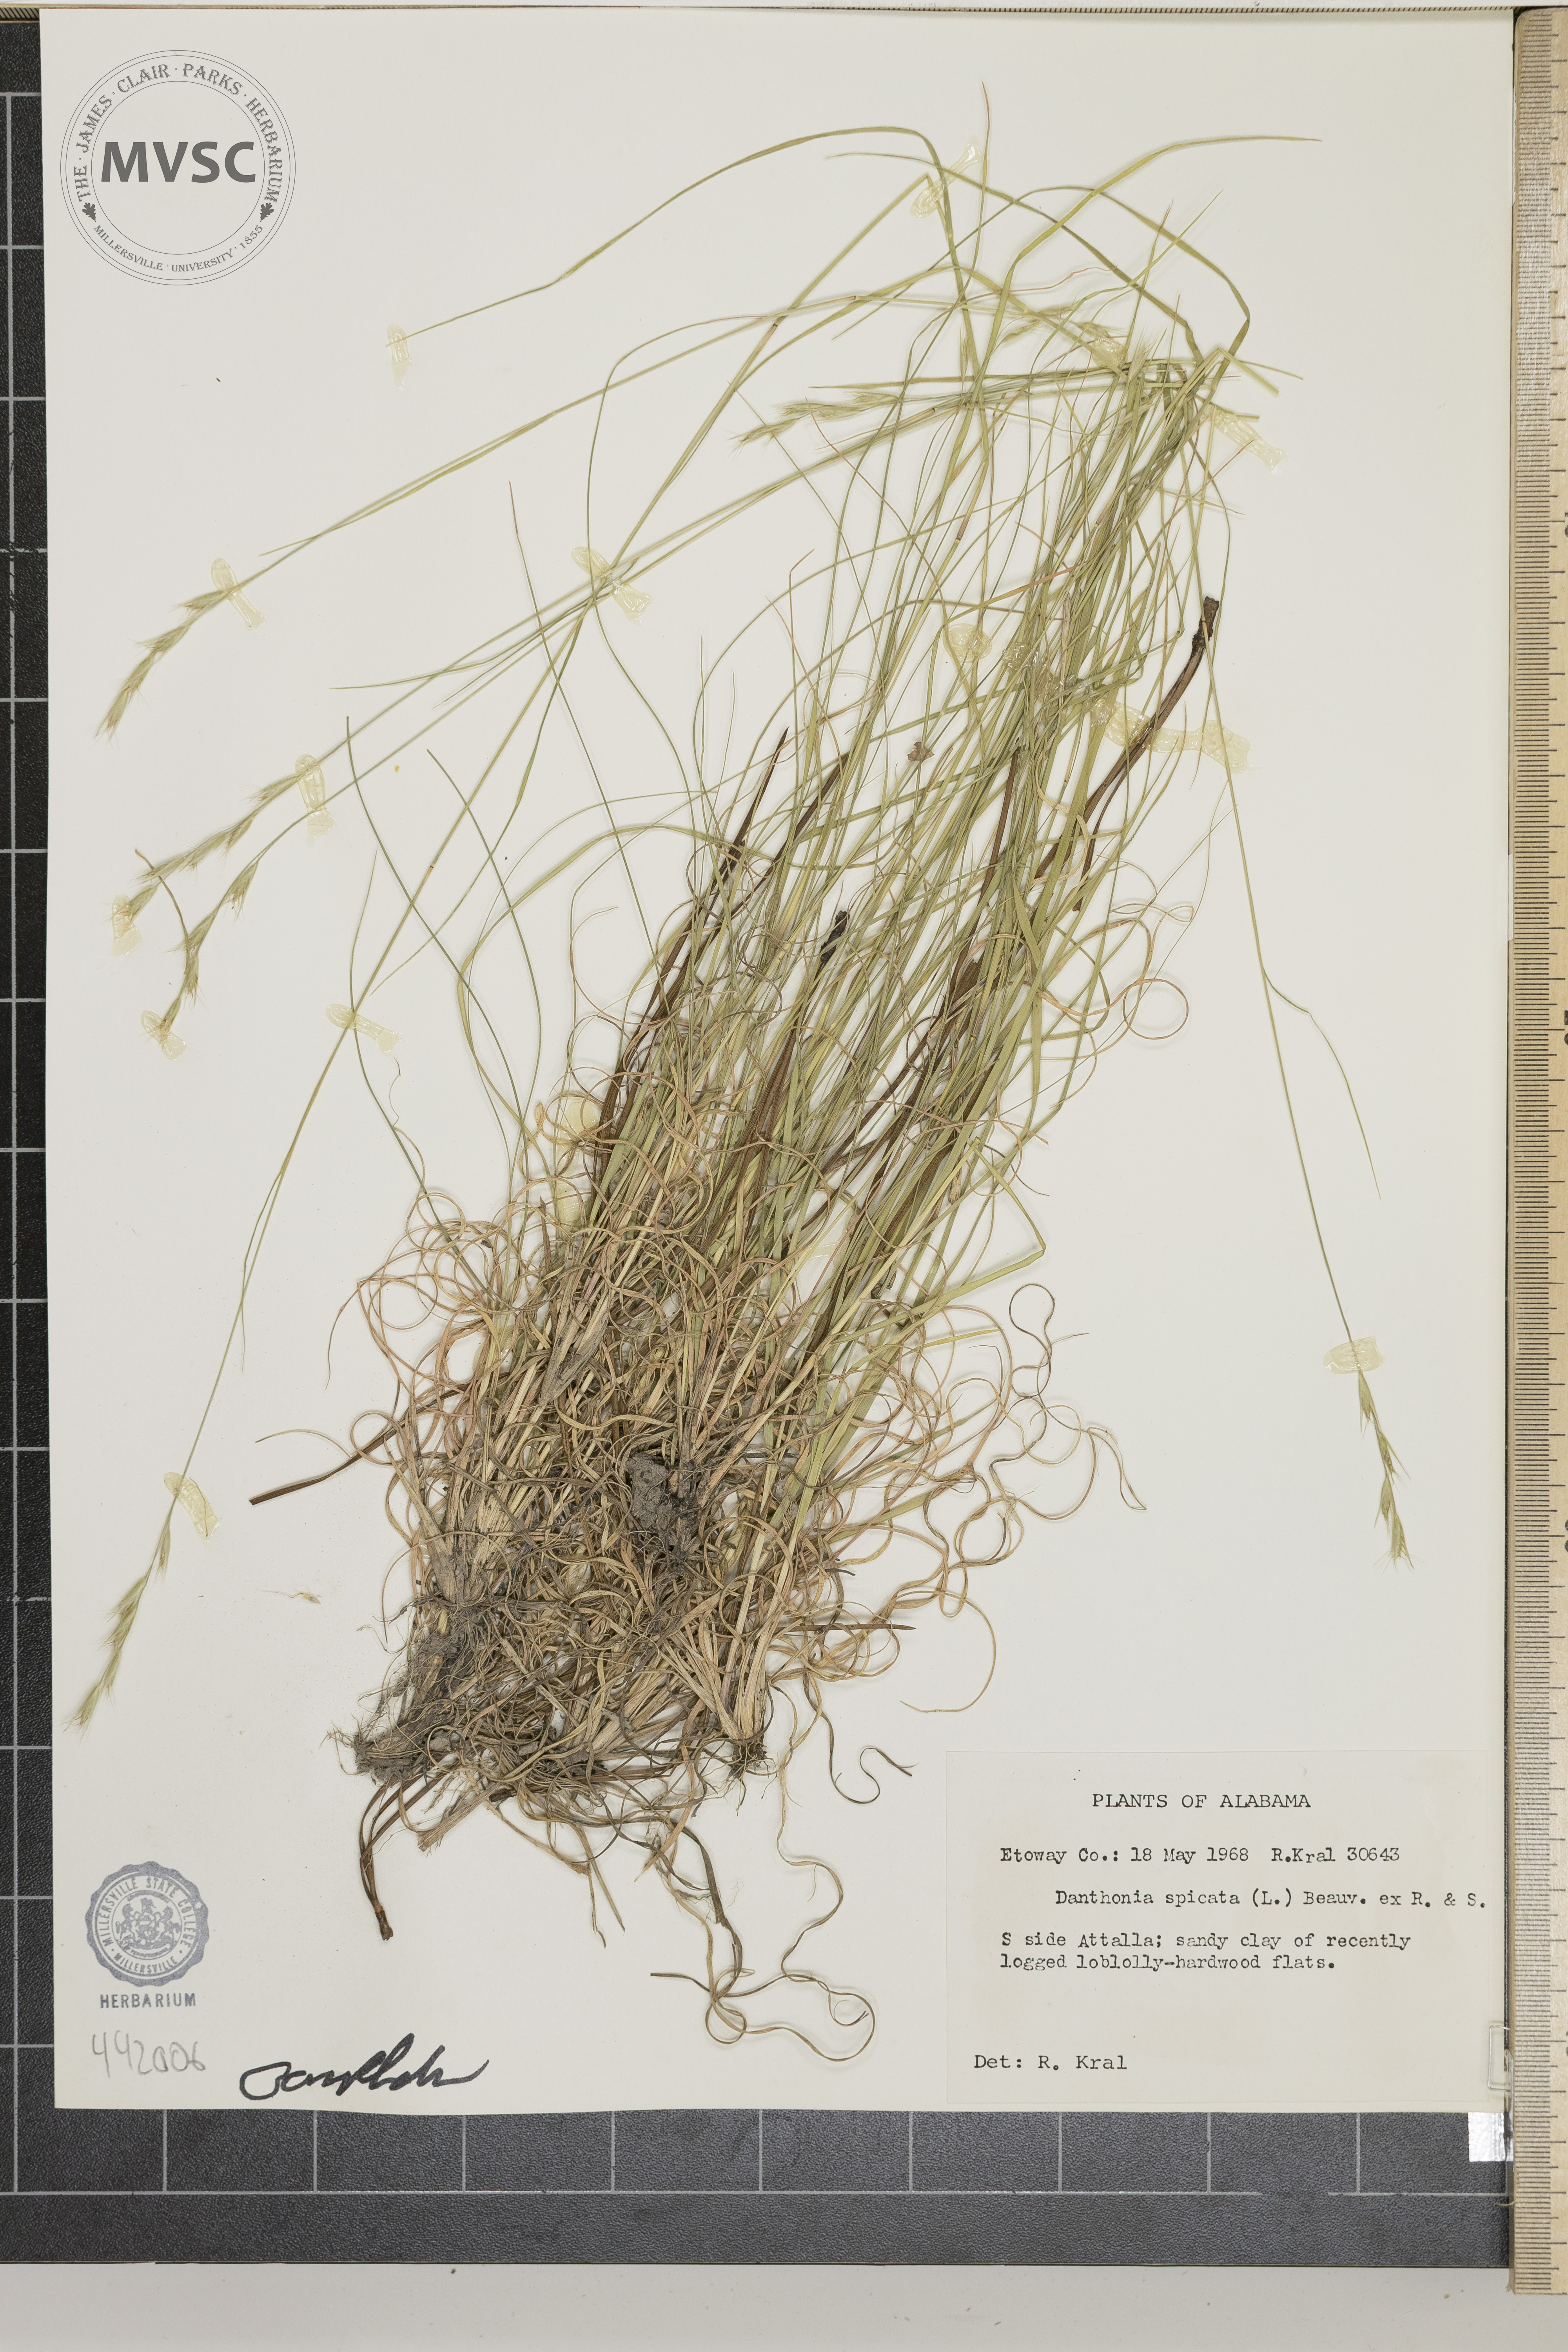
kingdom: Plantae
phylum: Tracheophyta
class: Liliopsida
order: Poales
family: Poaceae
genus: Danthonia
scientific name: Danthonia spicata
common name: Common wild oatgrass
